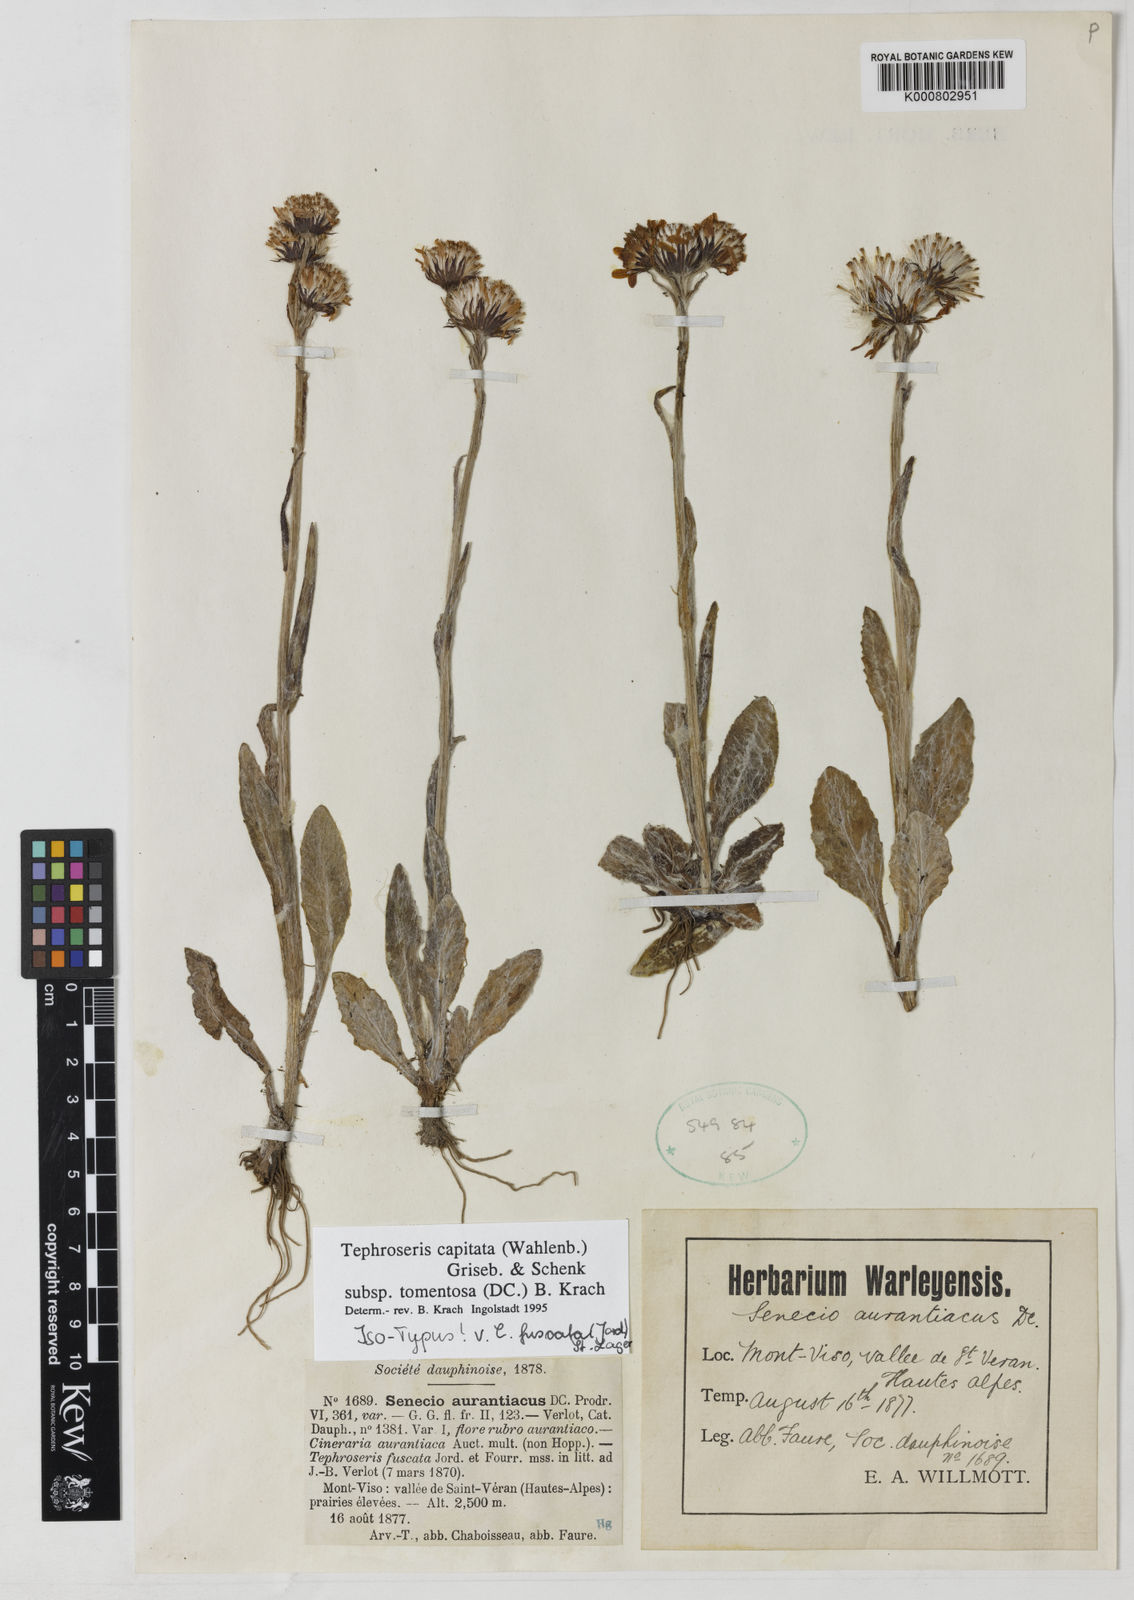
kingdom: Plantae
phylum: Tracheophyta
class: Magnoliopsida
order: Asterales
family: Asteraceae
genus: Tephroseris
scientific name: Tephroseris integrifolia
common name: Field fleawort
